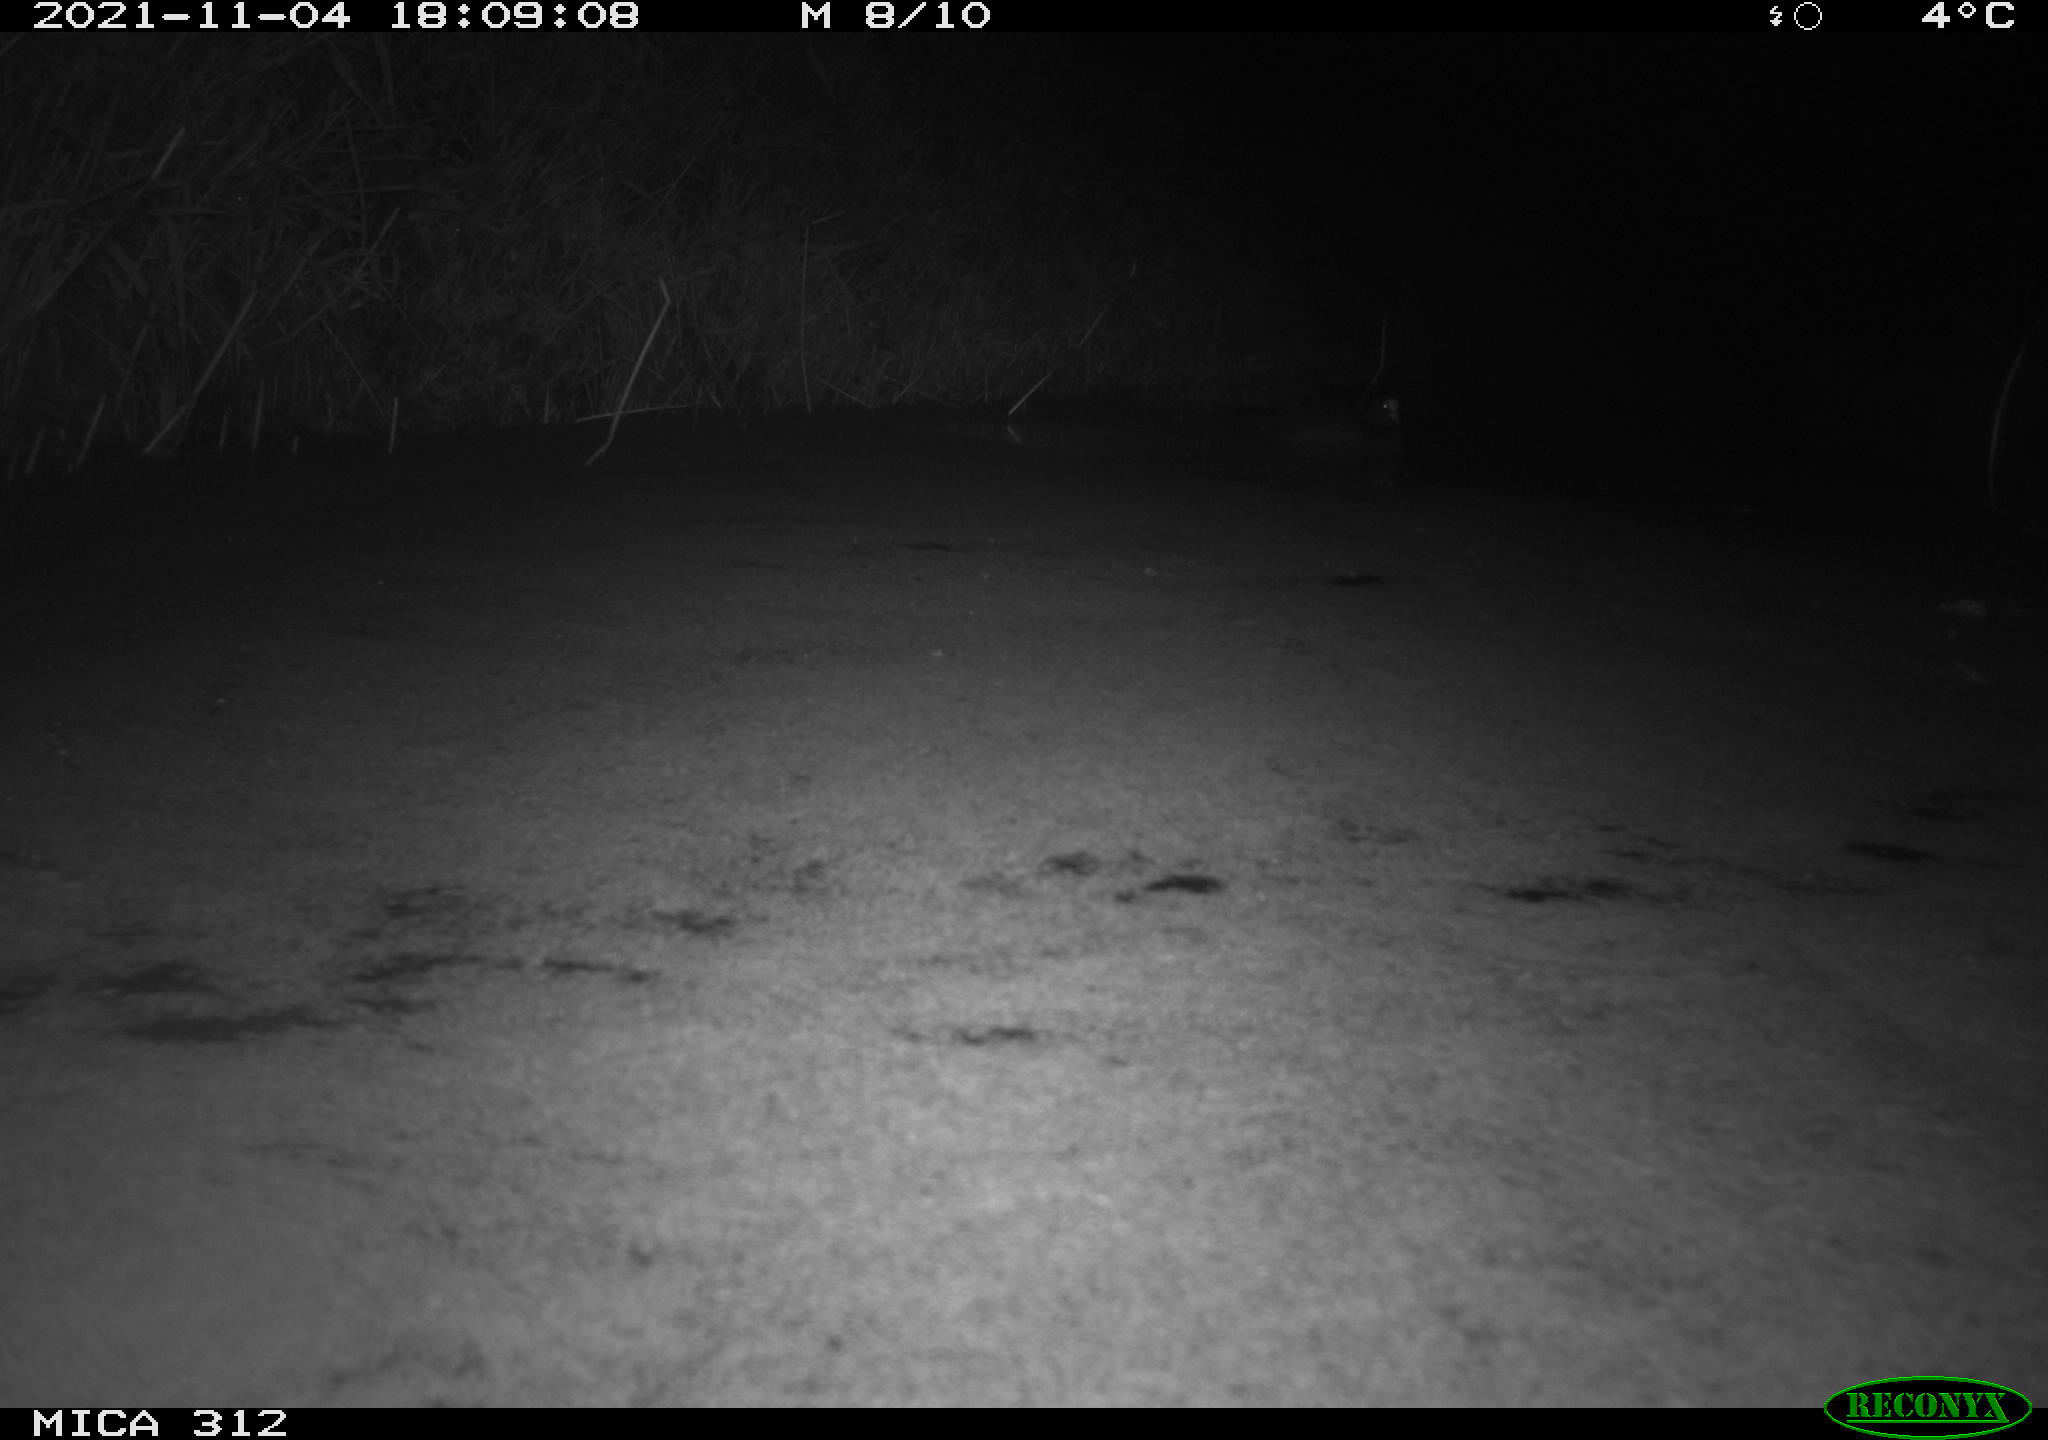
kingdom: Animalia
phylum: Chordata
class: Mammalia
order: Rodentia
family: Muridae
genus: Rattus
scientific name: Rattus norvegicus
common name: Brown rat
